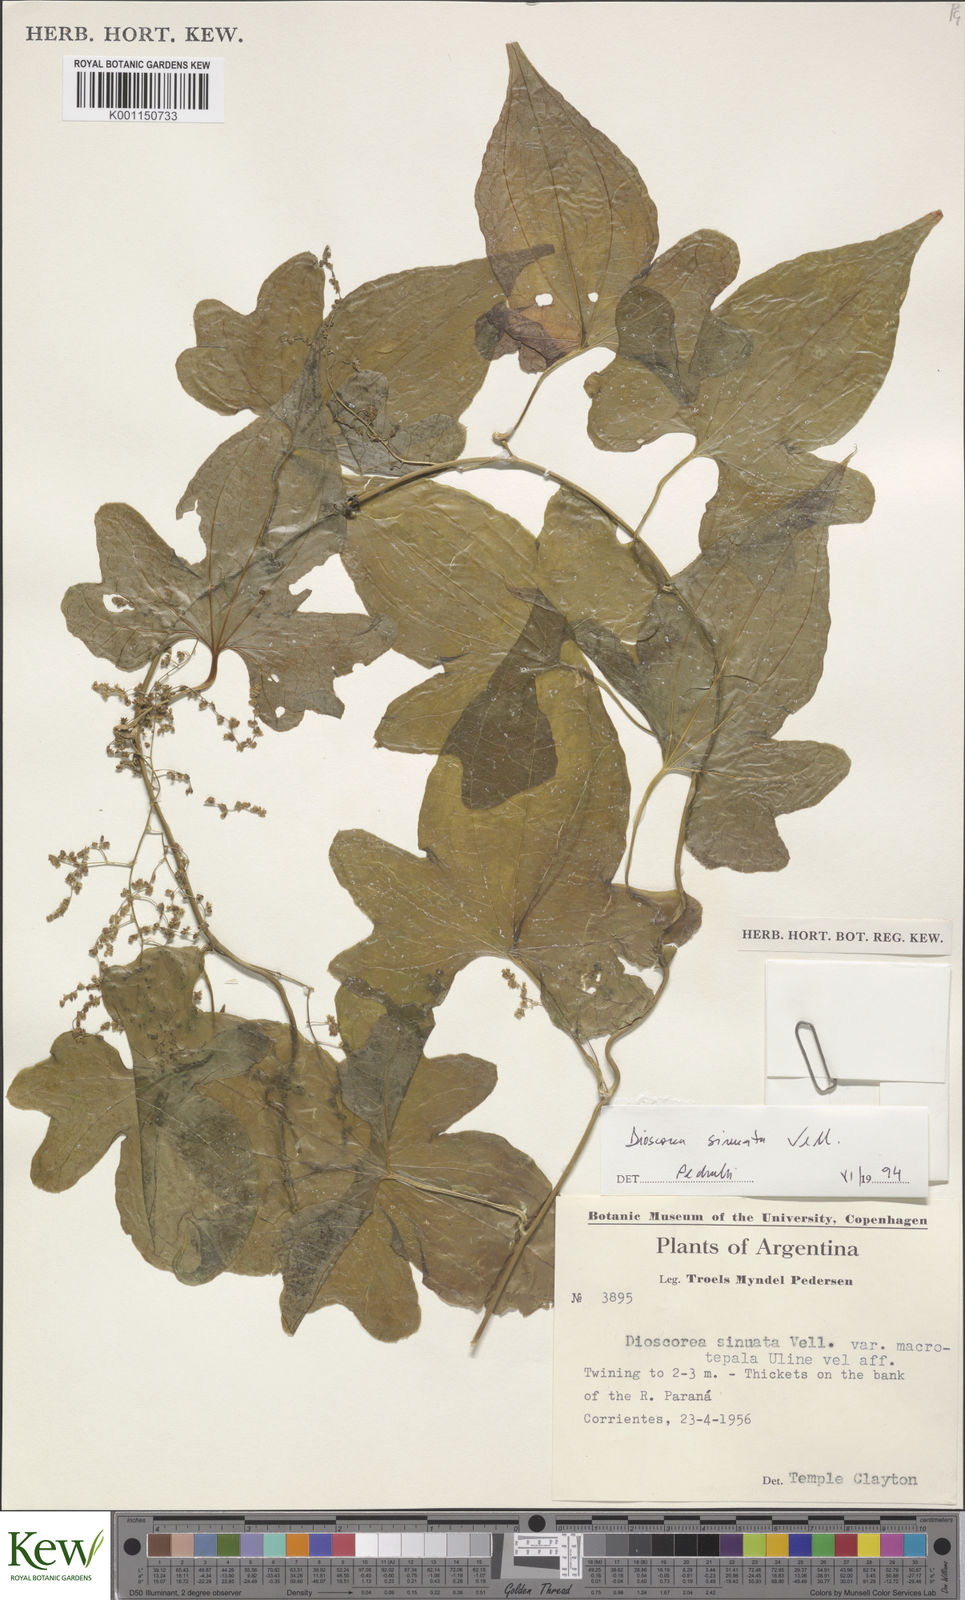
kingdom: Plantae
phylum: Tracheophyta
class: Liliopsida
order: Dioscoreales
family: Dioscoreaceae
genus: Dioscorea
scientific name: Dioscorea sinuata
